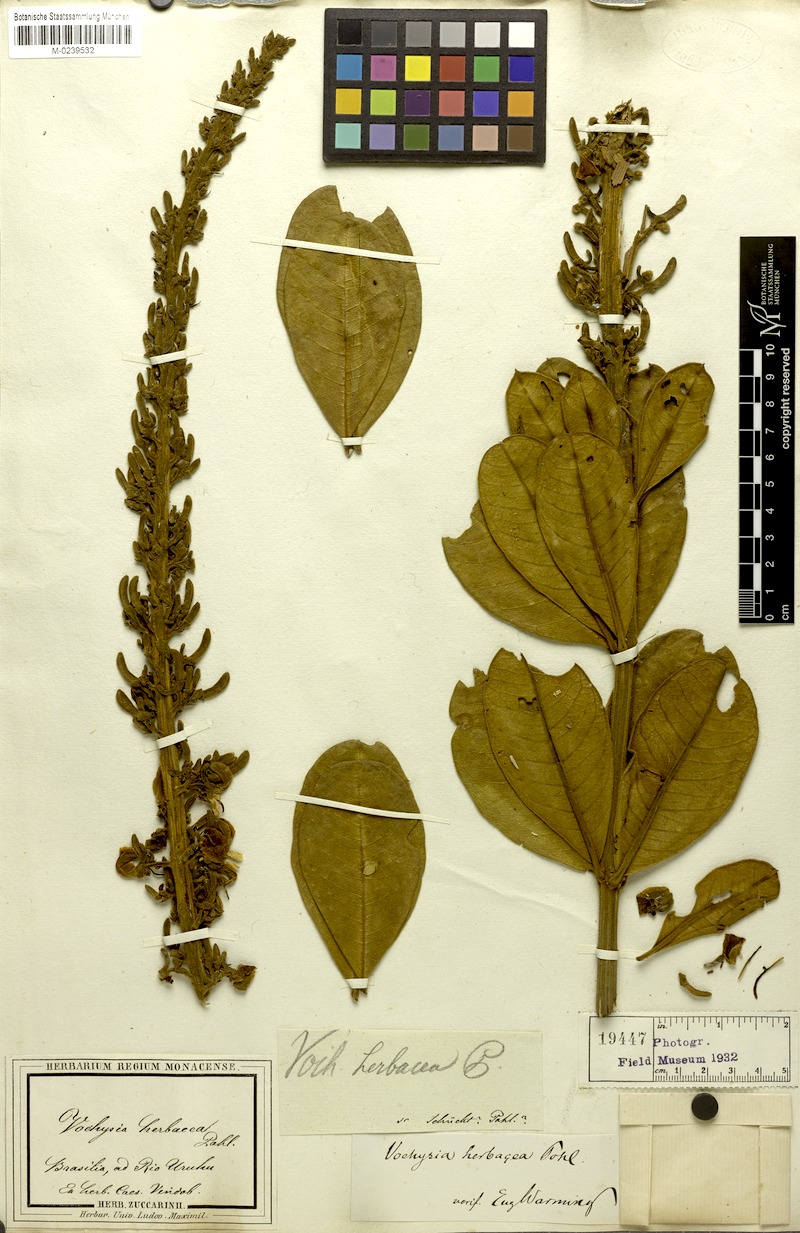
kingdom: Plantae
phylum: Tracheophyta
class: Magnoliopsida
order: Myrtales
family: Vochysiaceae
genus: Vochysia
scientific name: Vochysia herbacea
